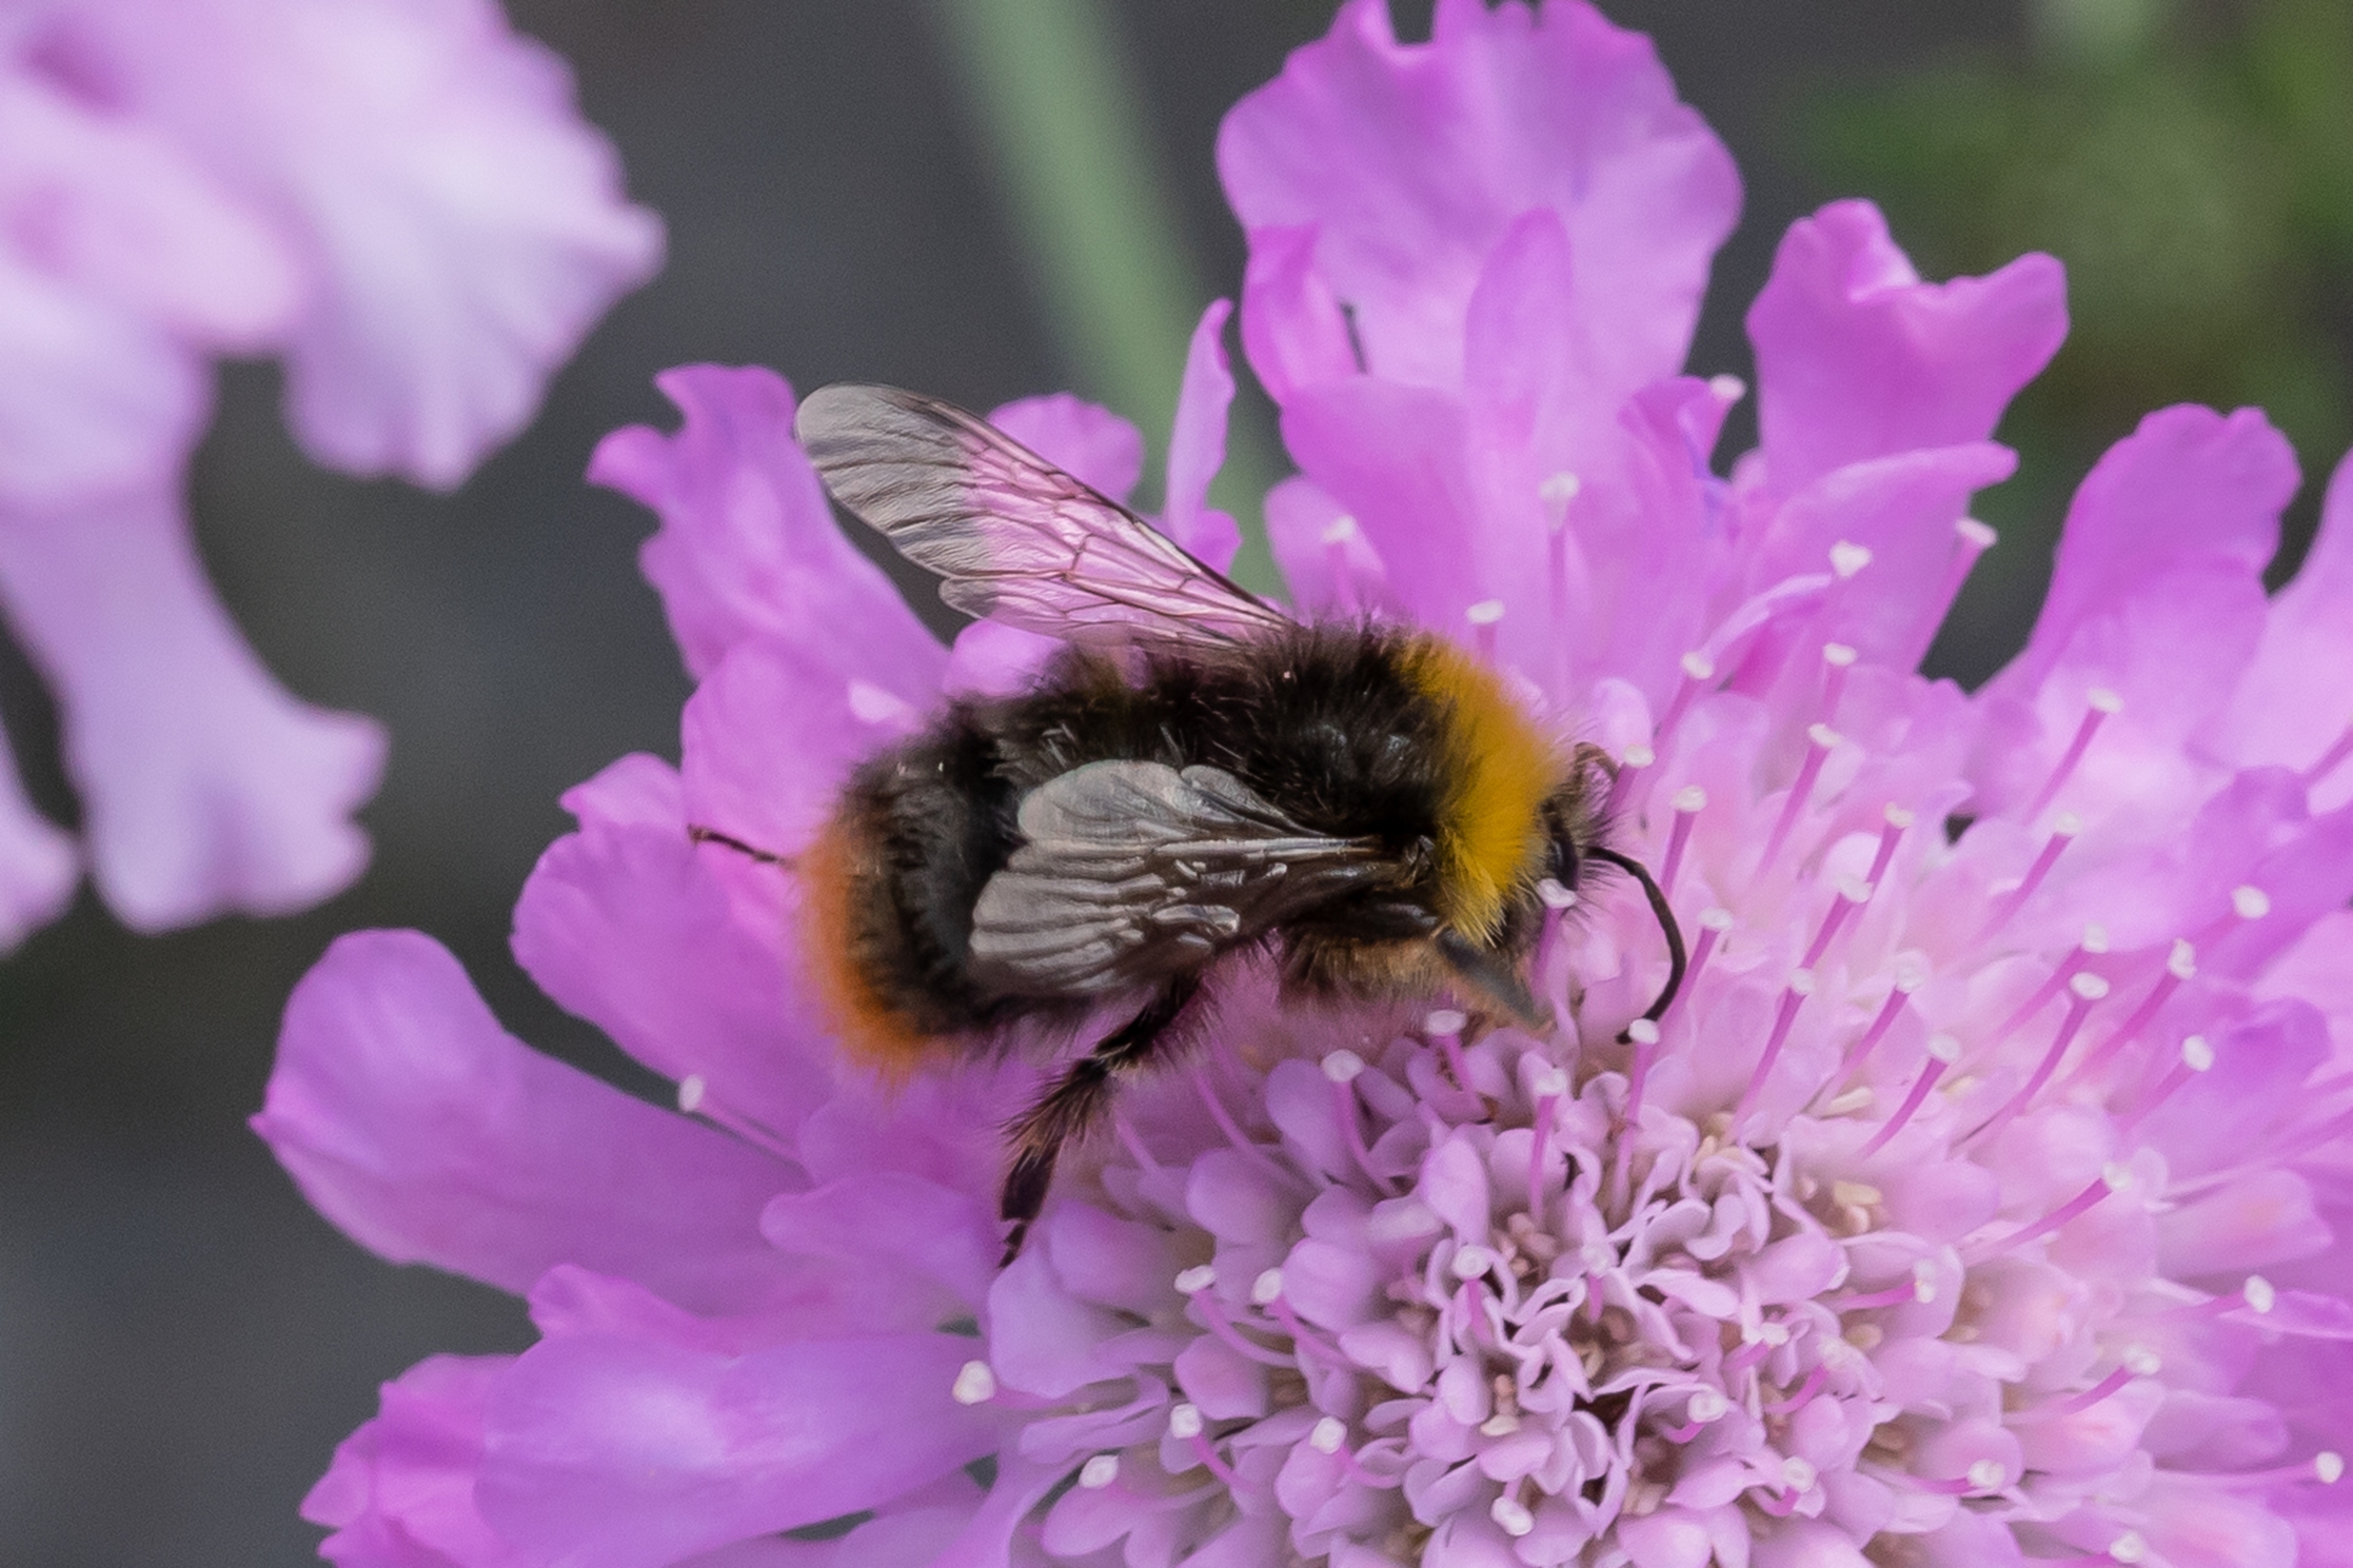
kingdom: Animalia
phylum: Arthropoda
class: Insecta
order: Hymenoptera
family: Apidae
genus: Bombus
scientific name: Bombus pratorum
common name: Lille skovhumle
